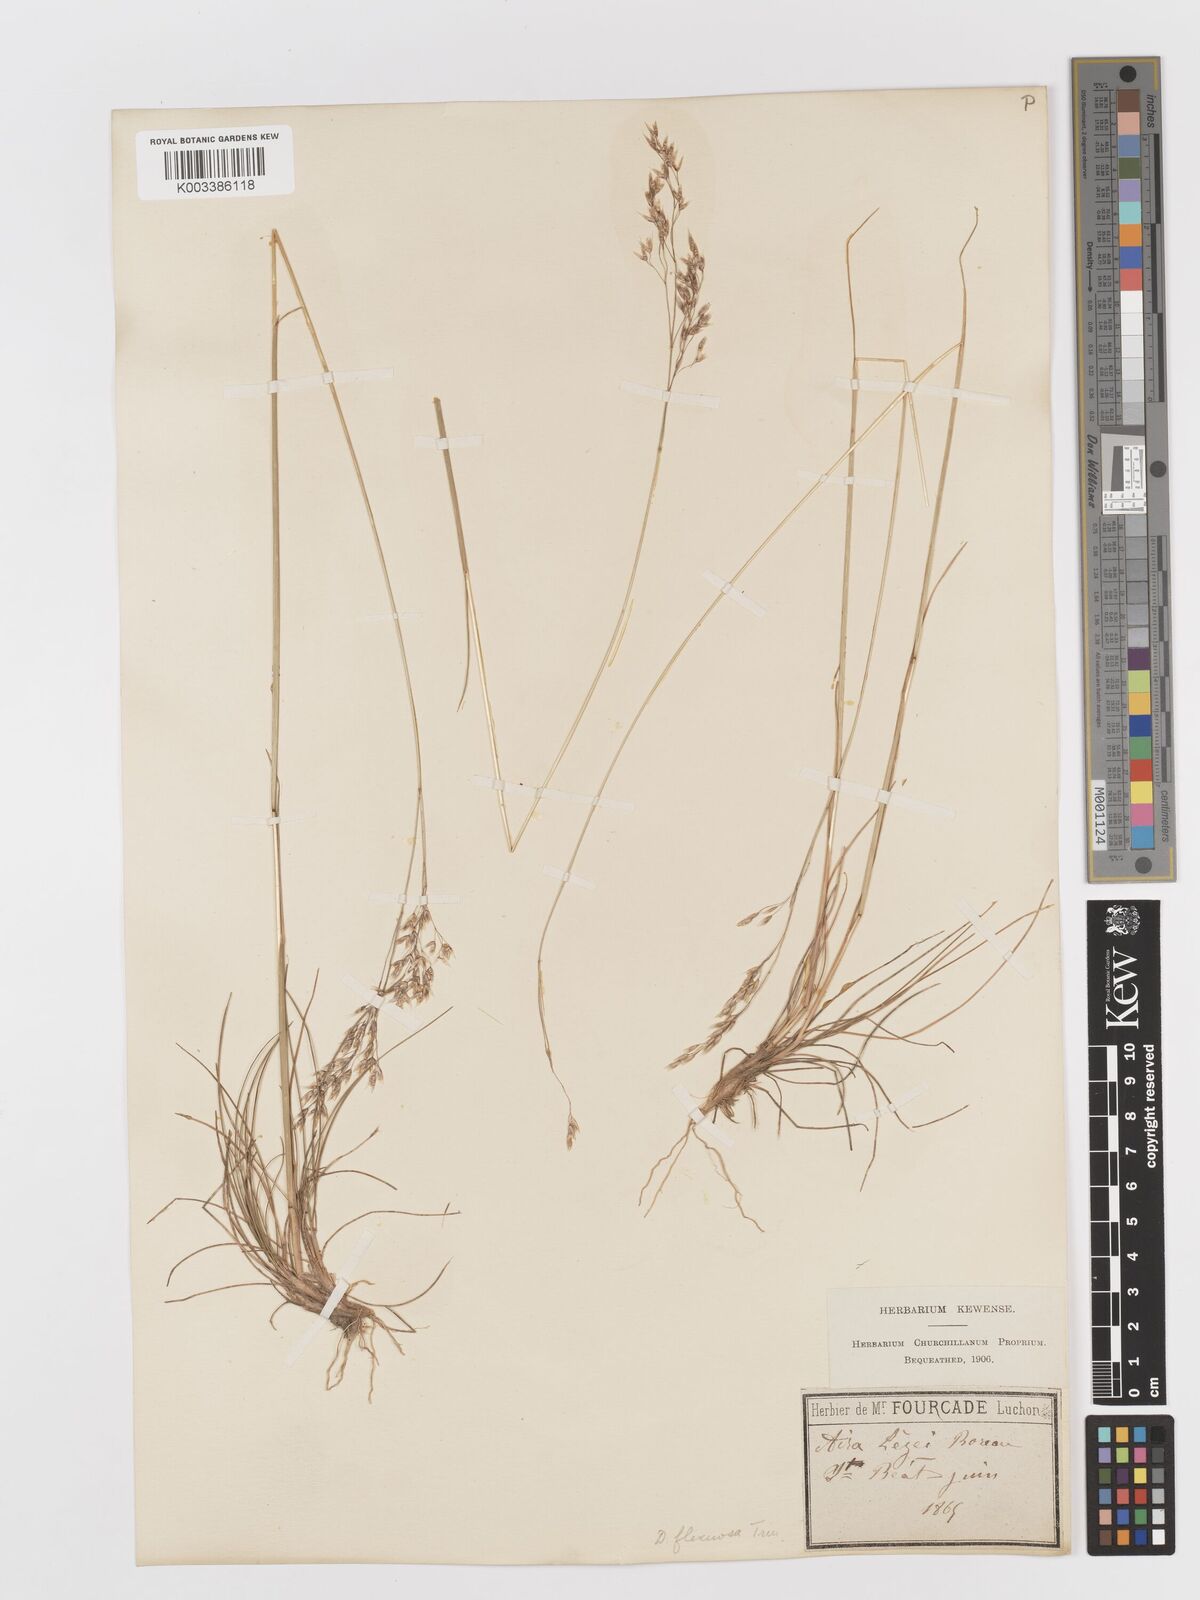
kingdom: Plantae
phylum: Tracheophyta
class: Liliopsida
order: Poales
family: Poaceae
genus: Avenella
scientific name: Avenella flexuosa
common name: Wavy hairgrass
